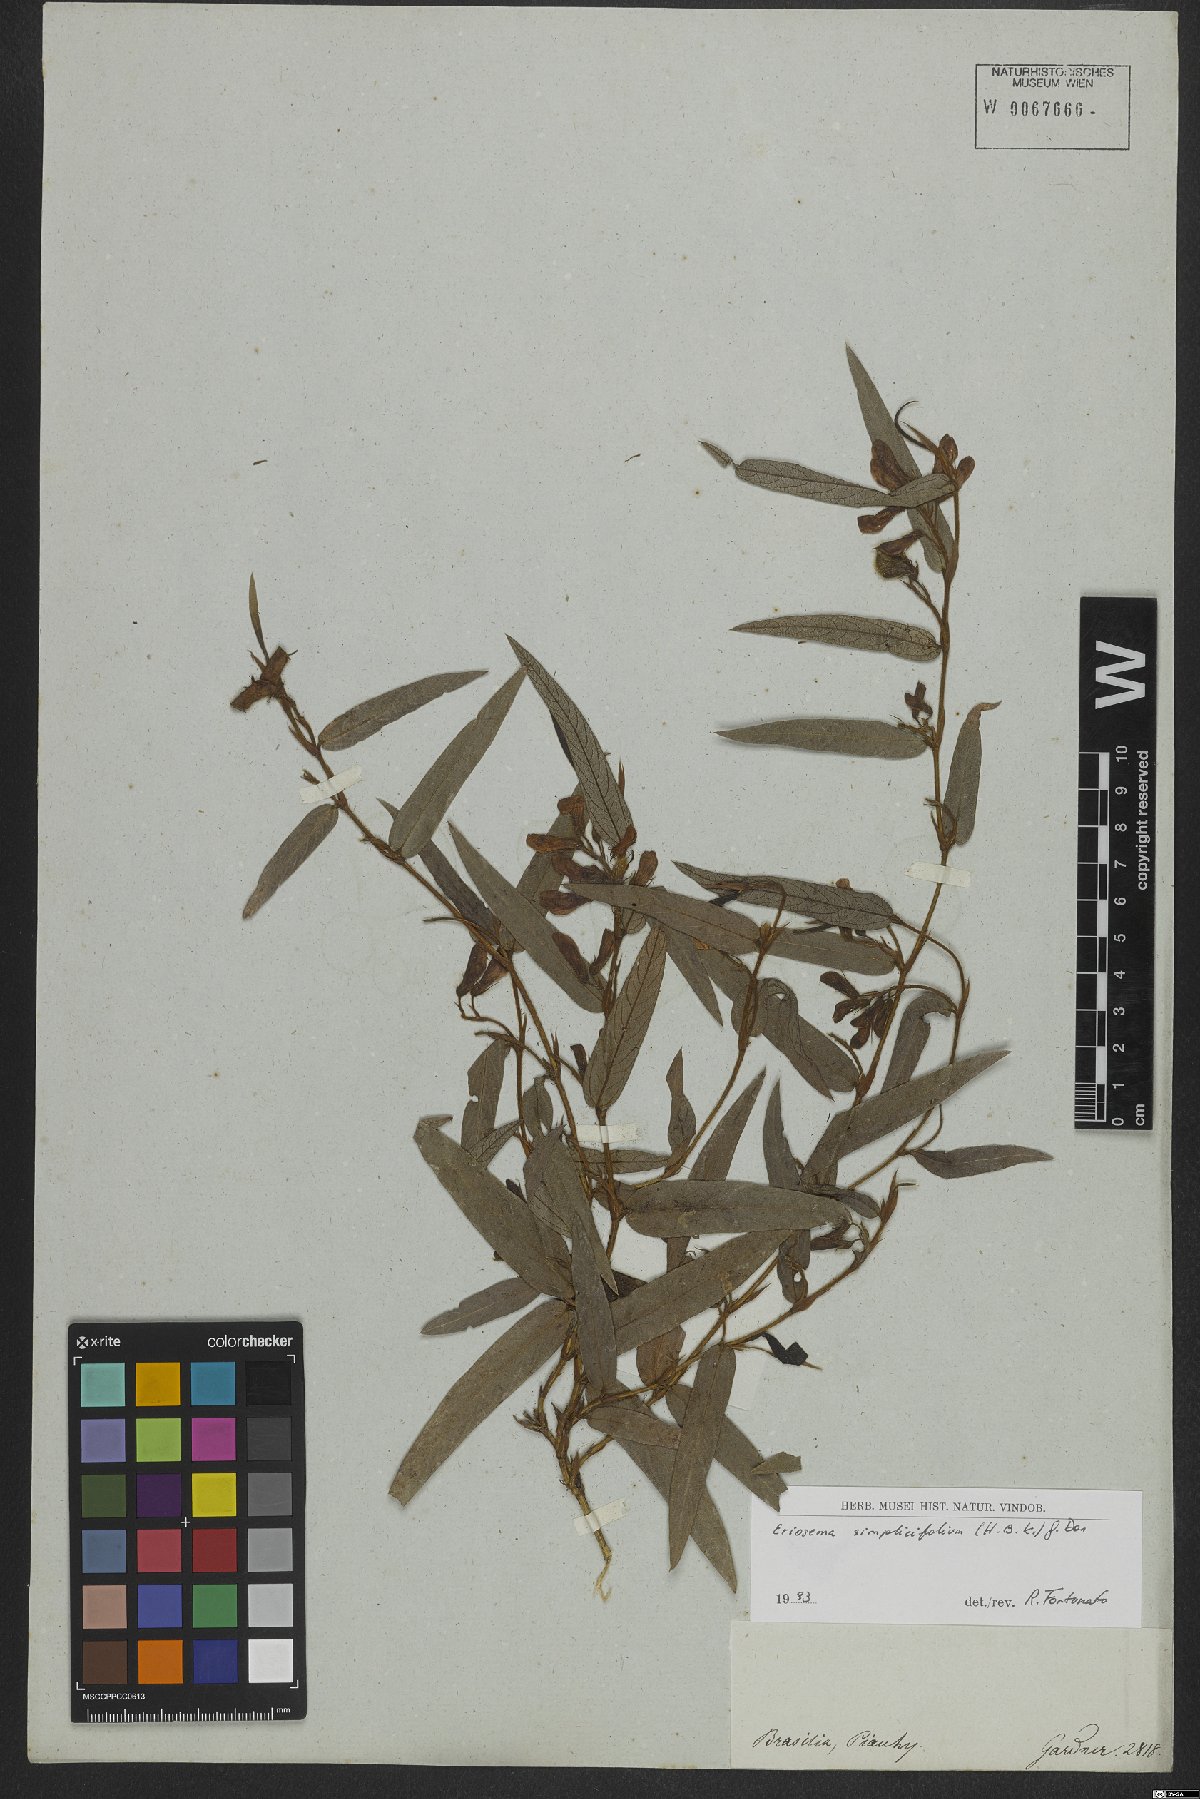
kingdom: Plantae
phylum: Tracheophyta
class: Magnoliopsida
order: Fabales
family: Fabaceae
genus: Eriosema
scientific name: Eriosema simplicifolium
